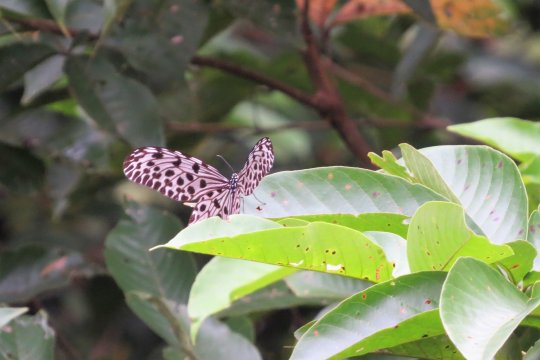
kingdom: Animalia
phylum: Arthropoda
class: Insecta
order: Lepidoptera
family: Nymphalidae
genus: Idea
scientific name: Idea stolli
